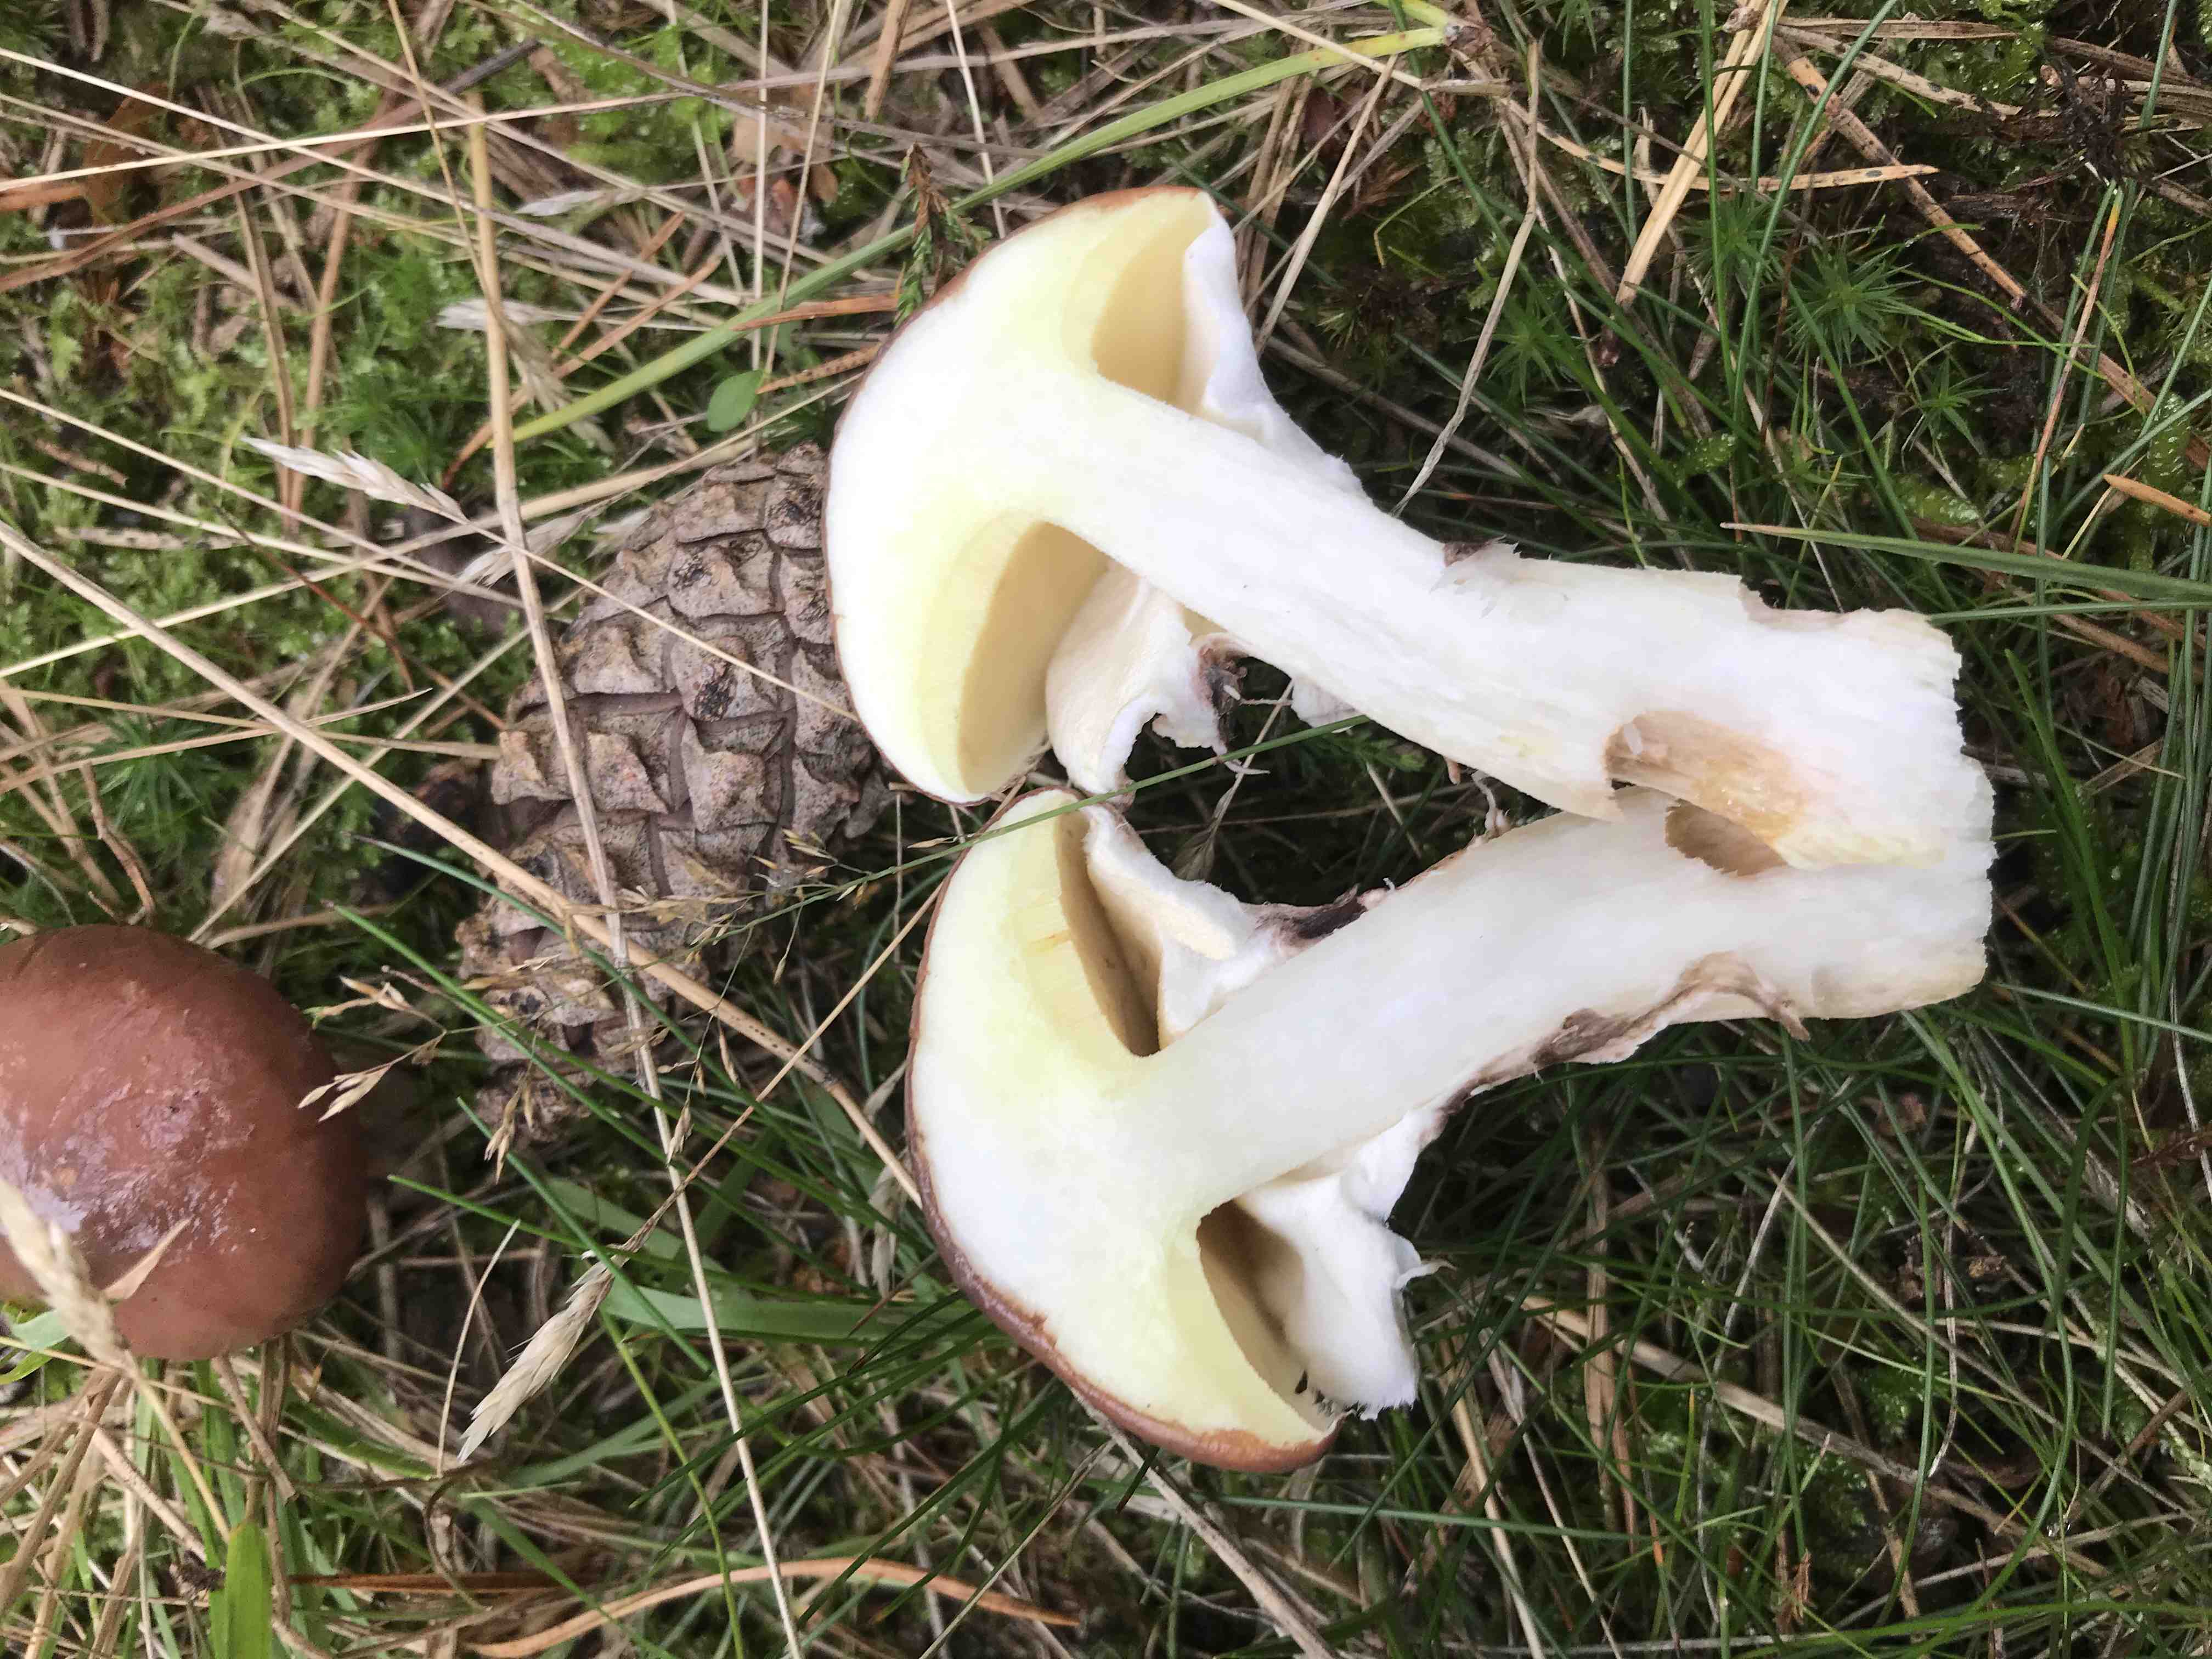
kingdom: Fungi
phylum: Basidiomycota
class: Agaricomycetes
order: Boletales
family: Suillaceae
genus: Suillus
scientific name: Suillus luteus
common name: brungul slimrørhat
